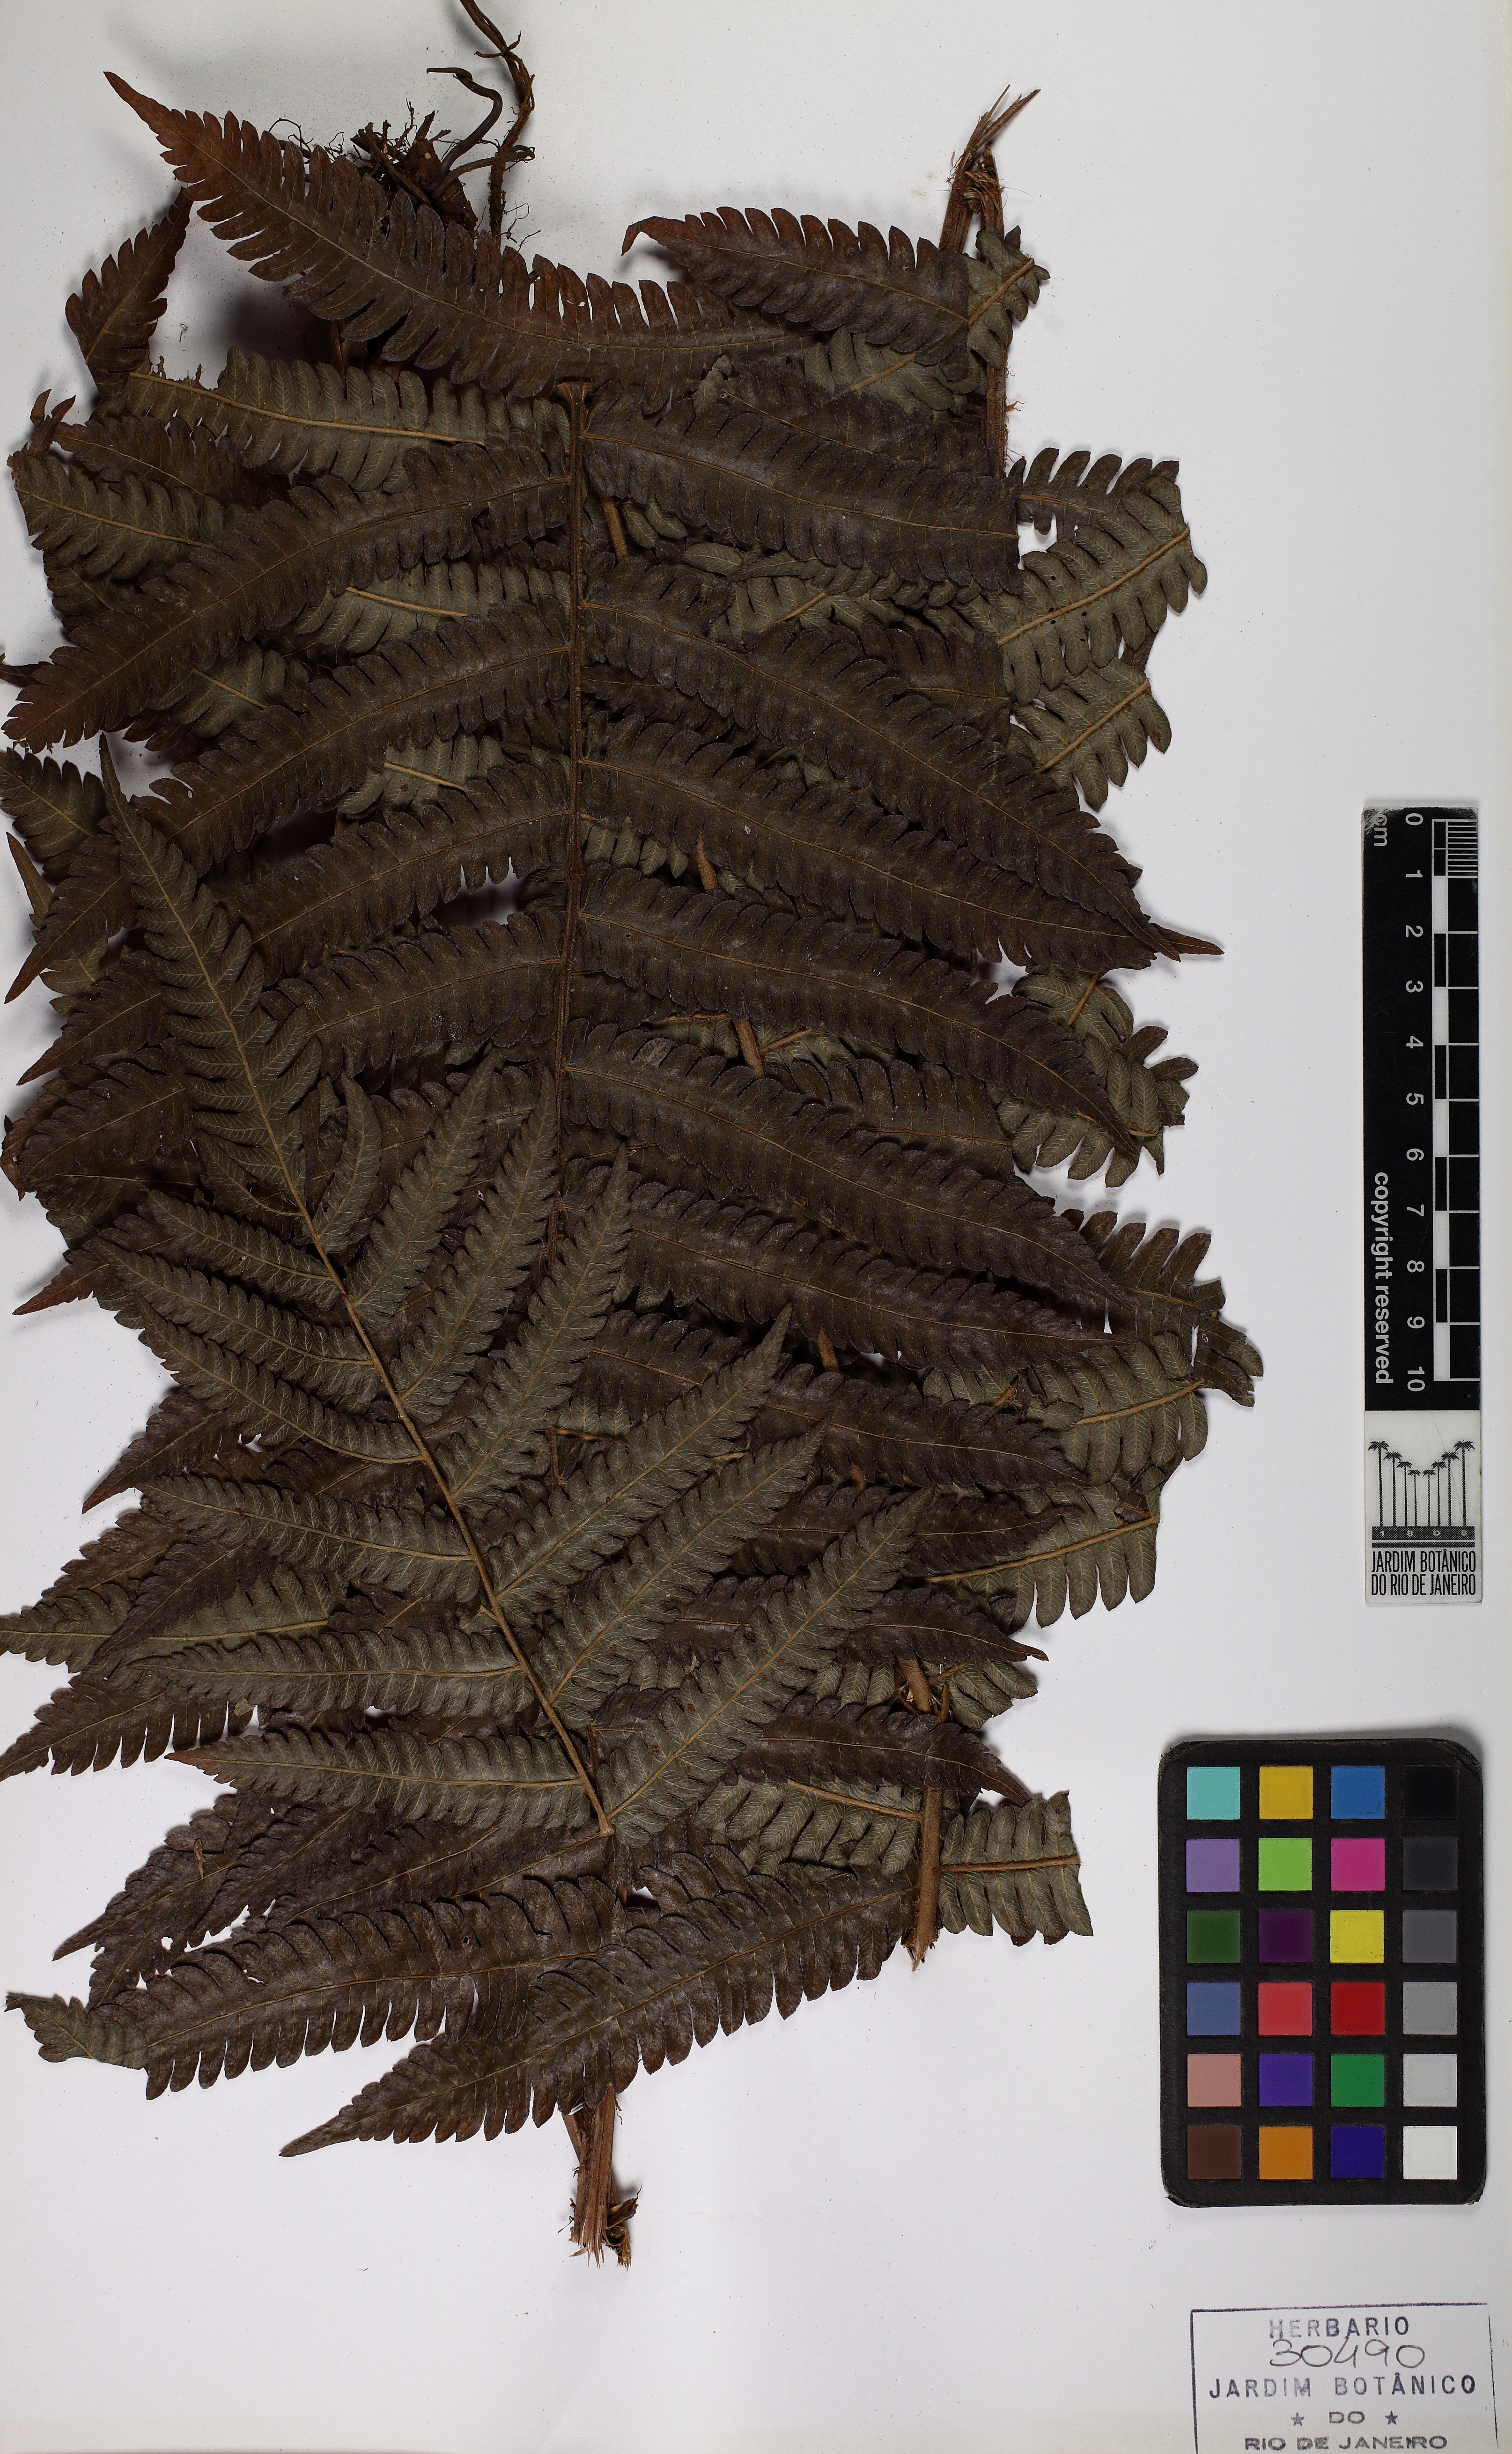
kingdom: Plantae
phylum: Tracheophyta
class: Polypodiopsida
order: Polypodiales
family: Thelypteridaceae
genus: Goniopteris
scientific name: Goniopteris montana
